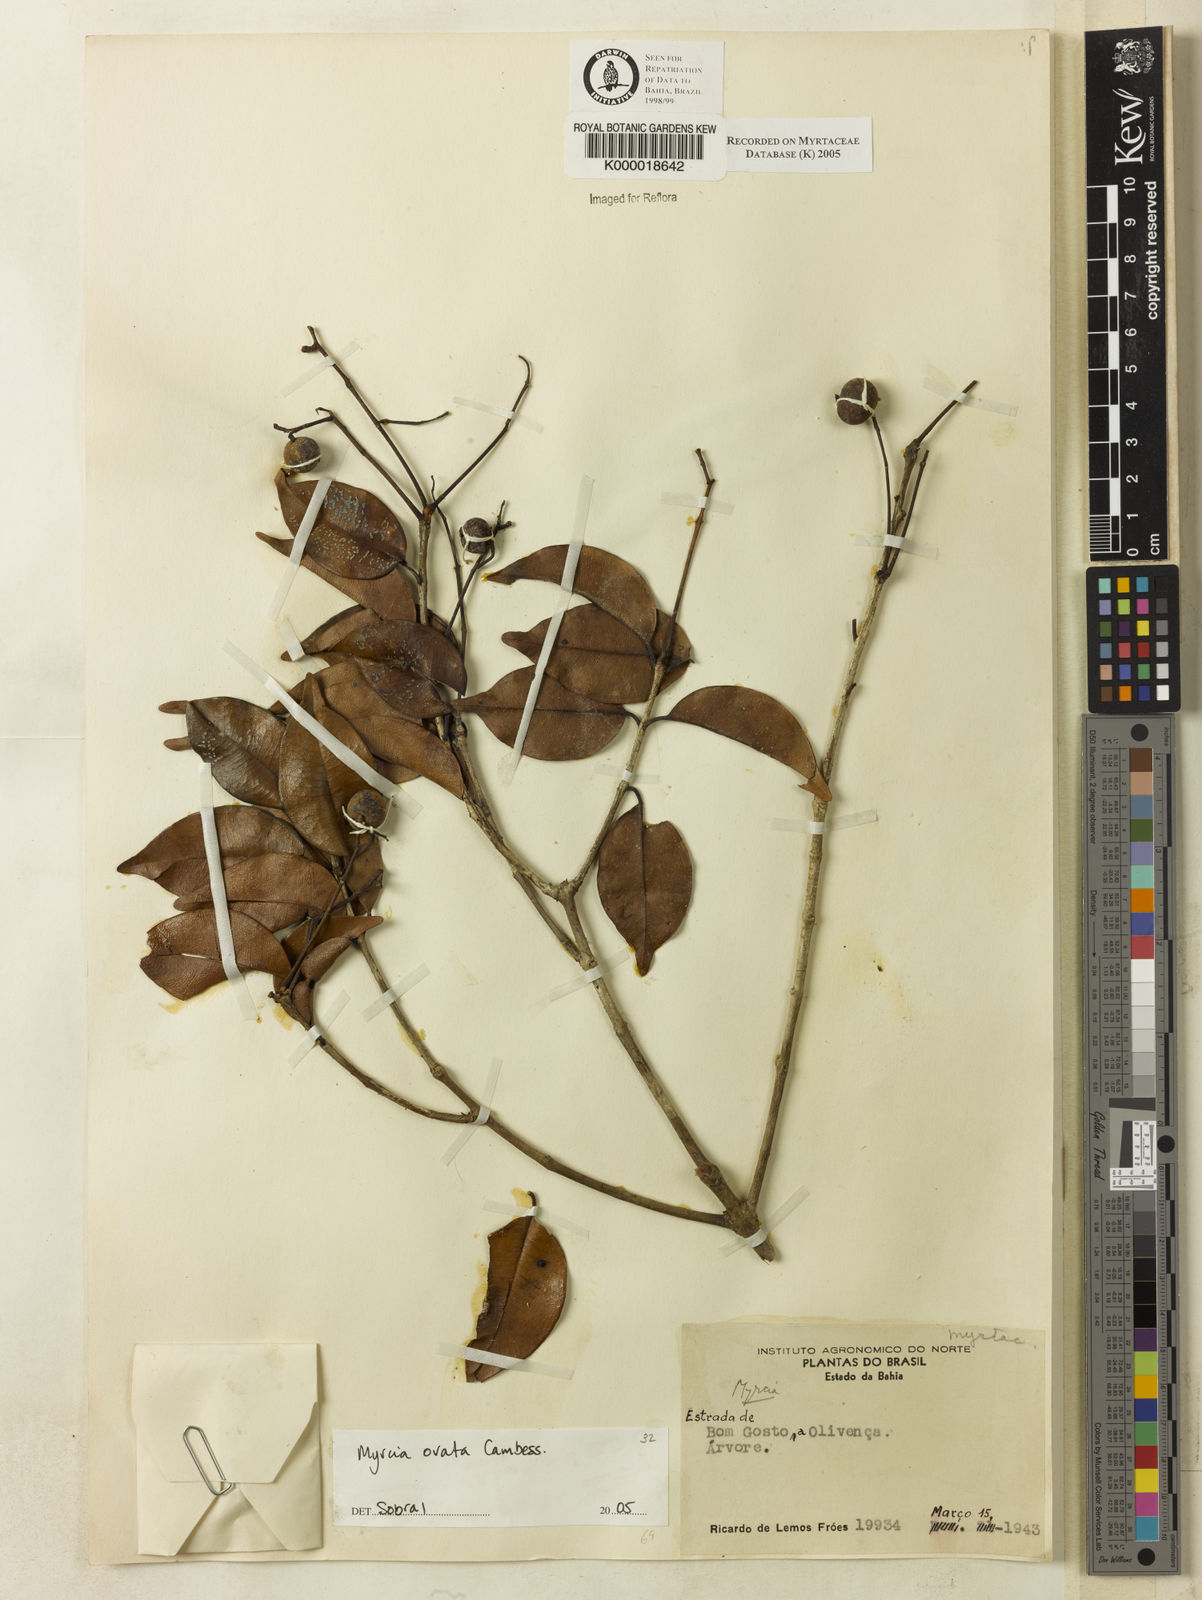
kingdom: Plantae
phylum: Tracheophyta
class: Magnoliopsida
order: Myrtales
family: Myrtaceae
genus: Myrcia
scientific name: Myrcia
